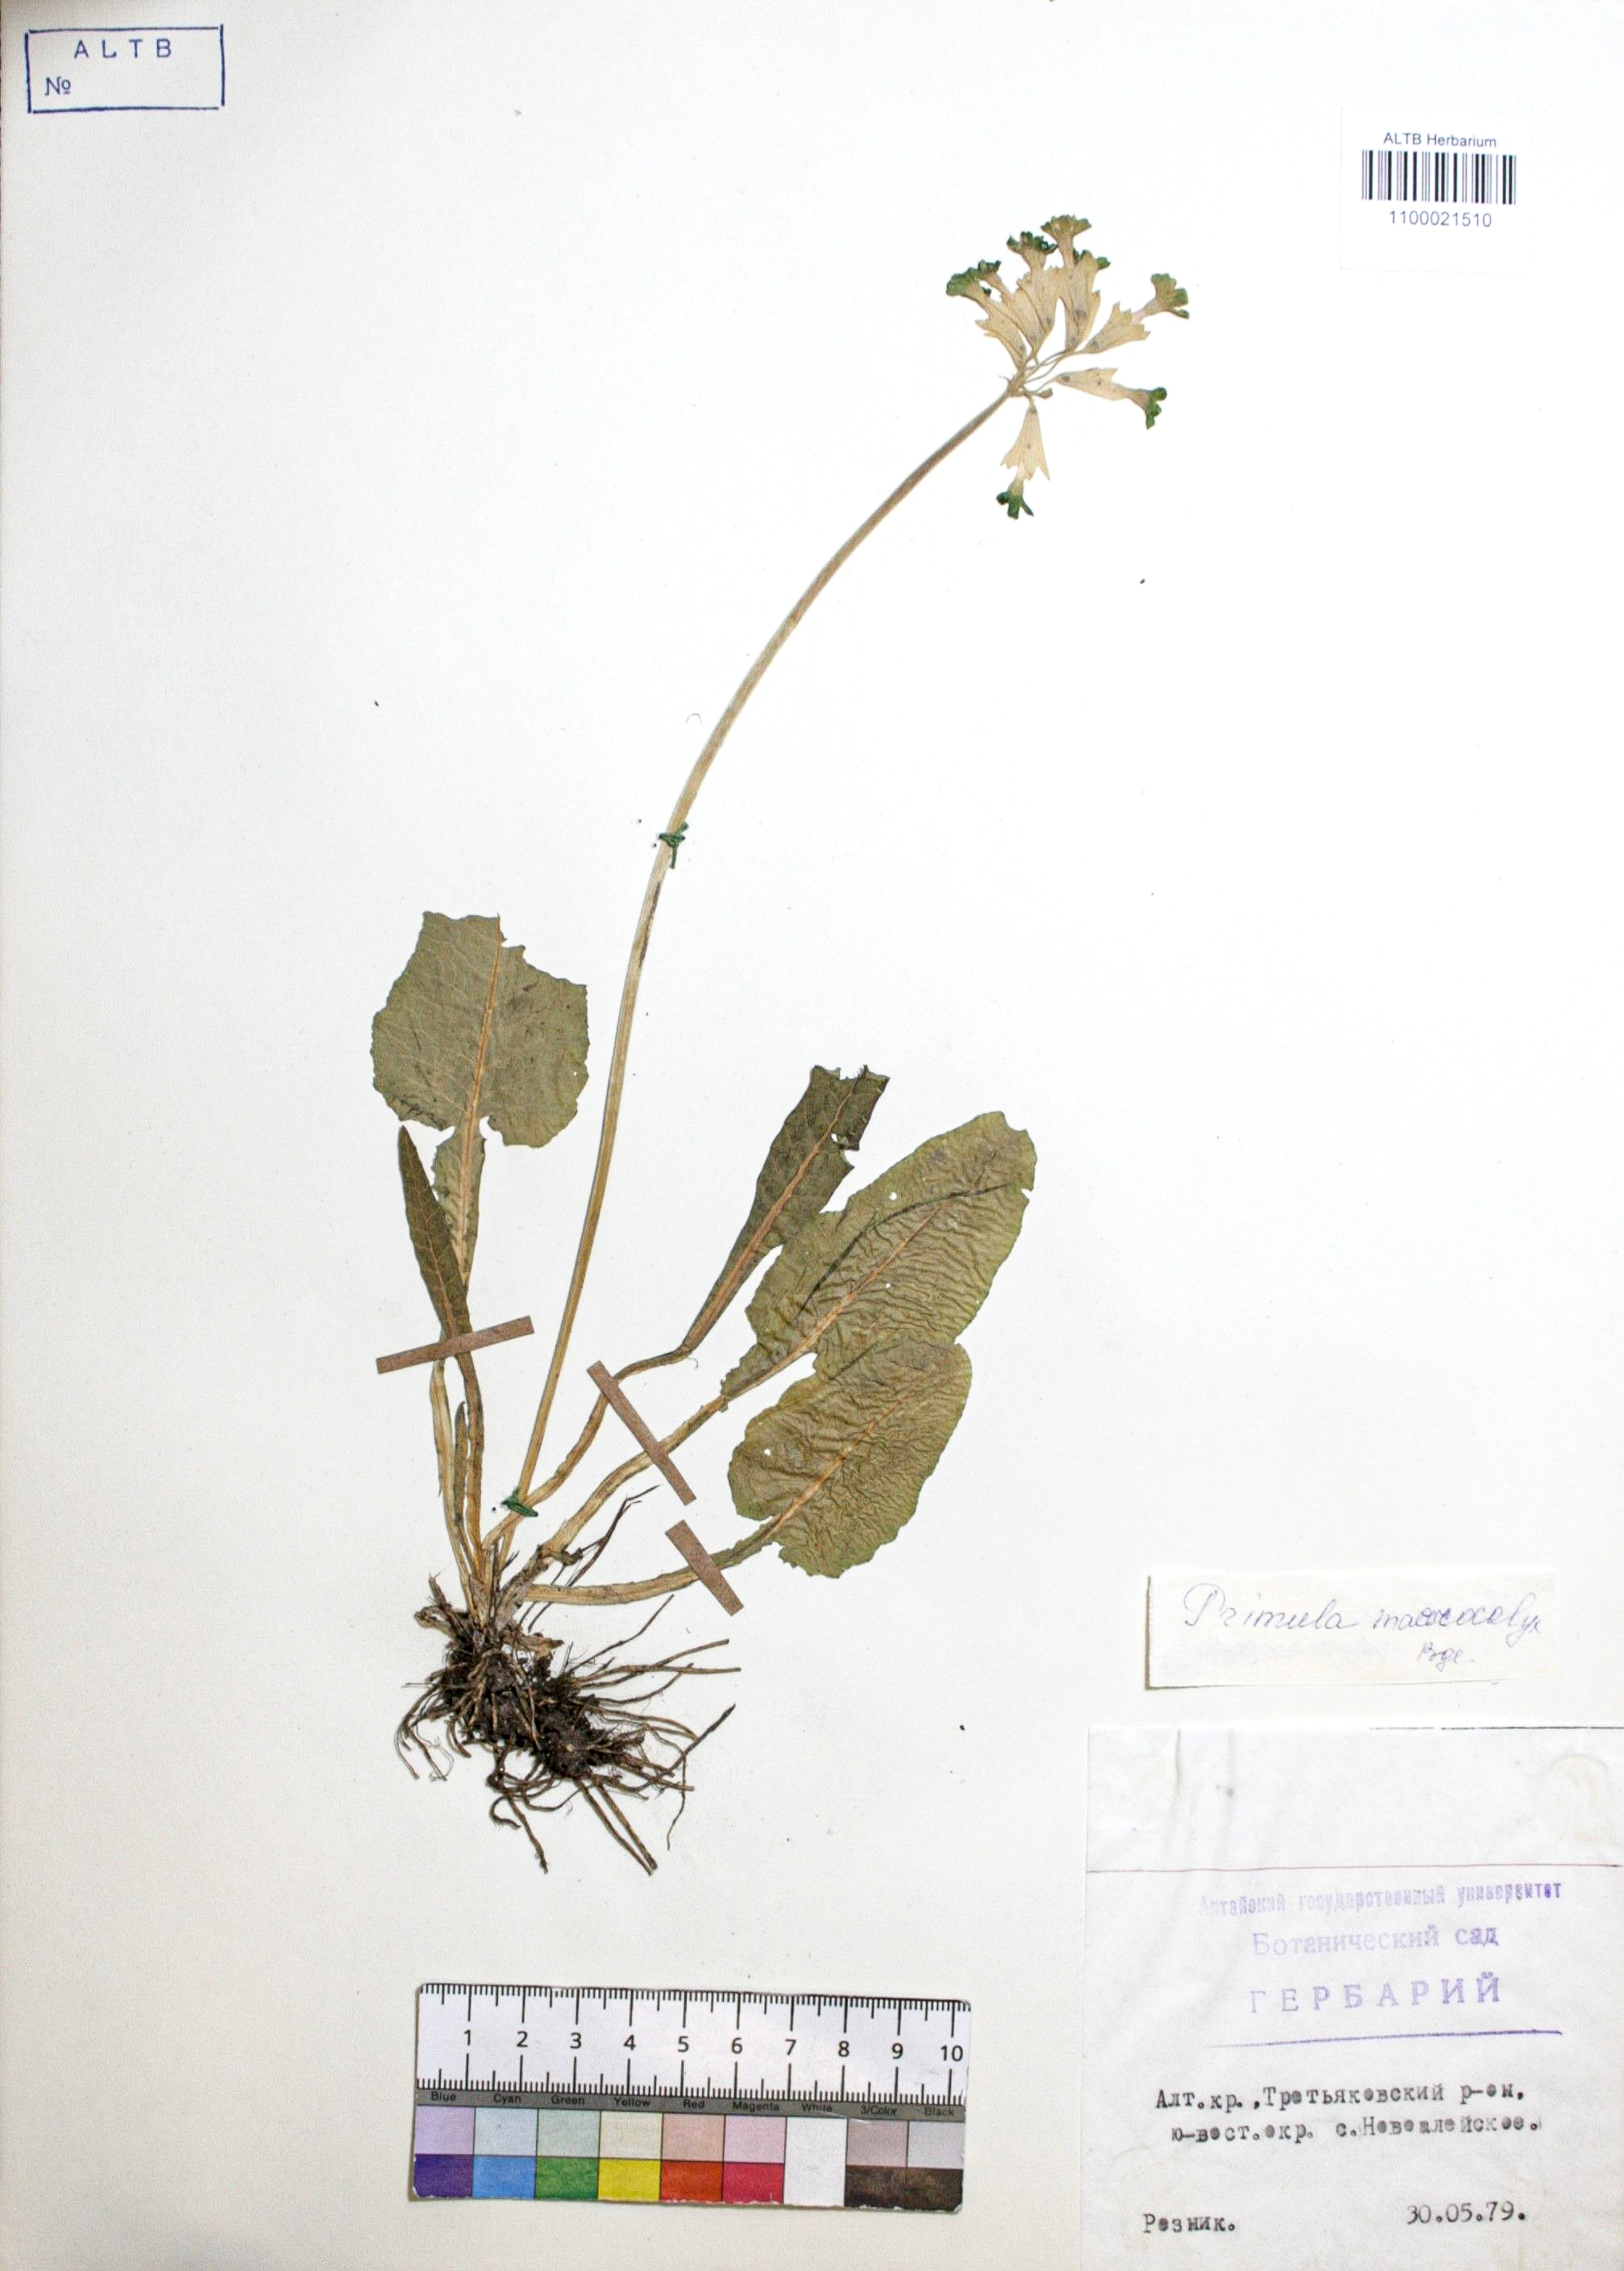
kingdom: Plantae
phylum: Tracheophyta
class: Magnoliopsida
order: Ericales
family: Primulaceae
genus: Primula
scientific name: Primula veris
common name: Cowslip
